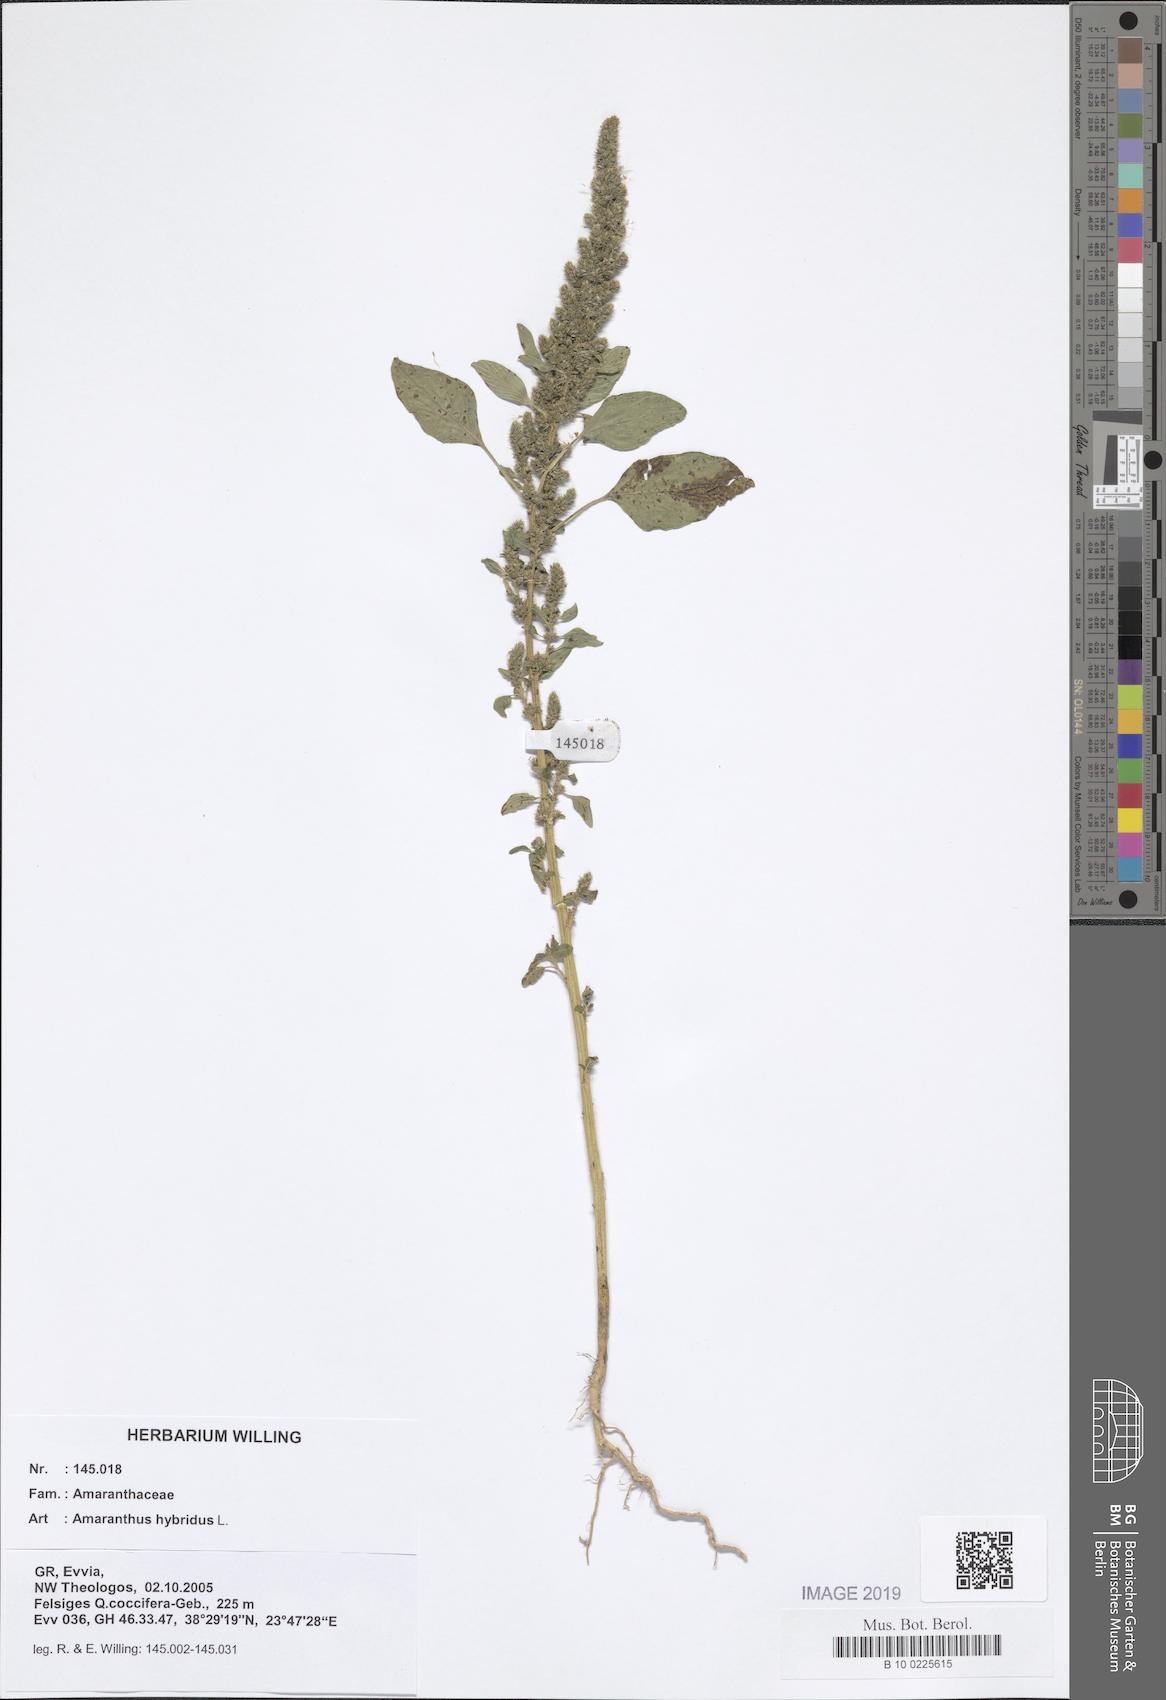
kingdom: Plantae
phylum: Tracheophyta
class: Magnoliopsida
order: Caryophyllales
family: Amaranthaceae
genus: Amaranthus
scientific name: Amaranthus hybridus
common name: Green amaranth
